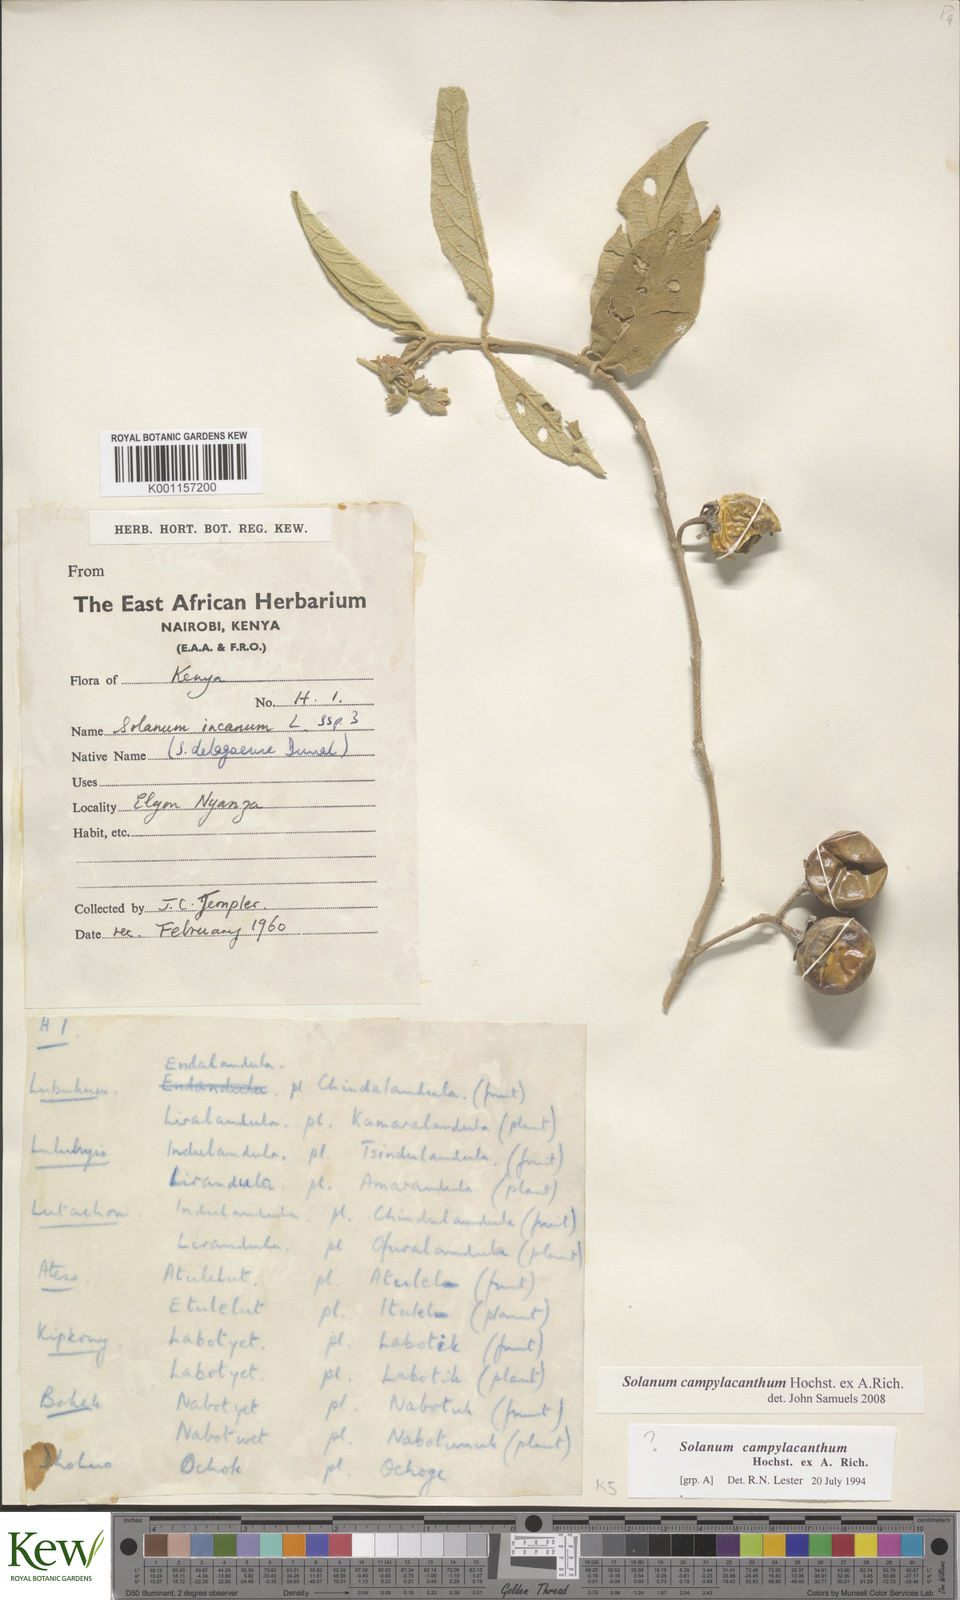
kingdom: Plantae
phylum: Tracheophyta
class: Magnoliopsida
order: Solanales
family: Solanaceae
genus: Solanum
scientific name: Solanum campylacanthum
